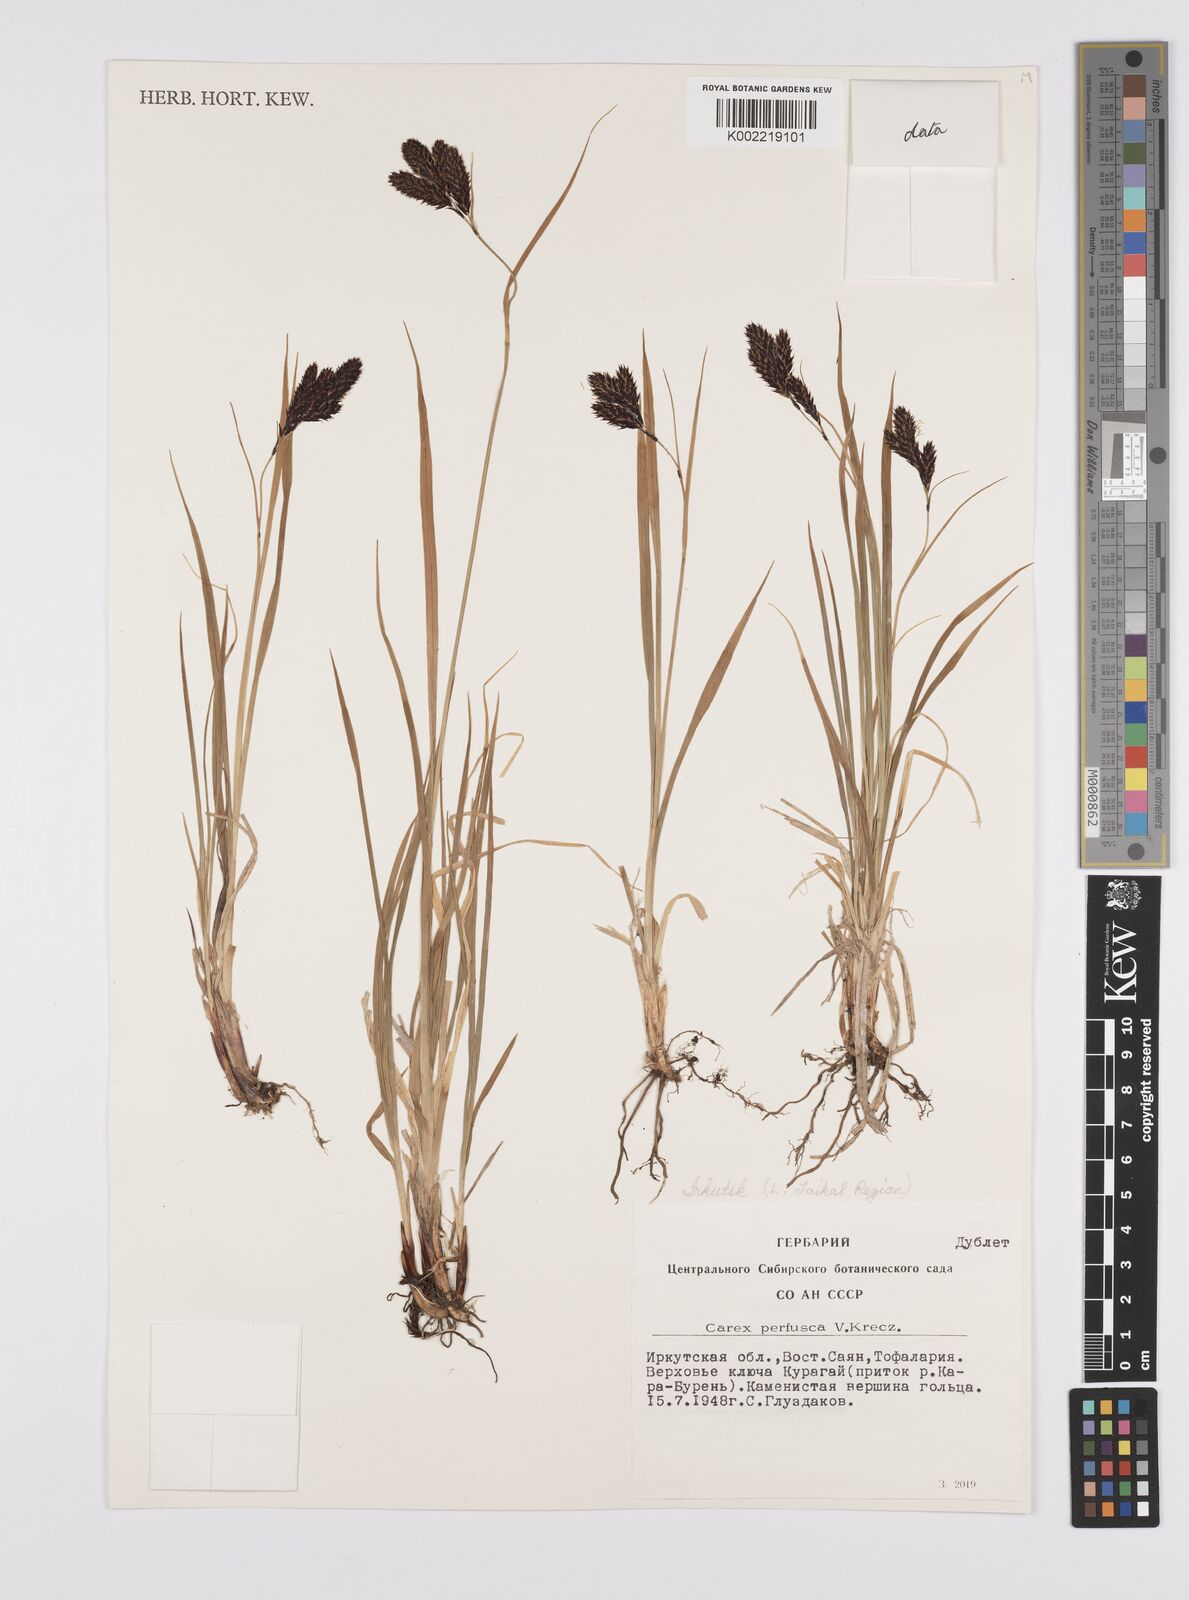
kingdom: Plantae
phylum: Tracheophyta
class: Liliopsida
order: Poales
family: Cyperaceae
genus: Carex
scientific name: Carex aterrima
